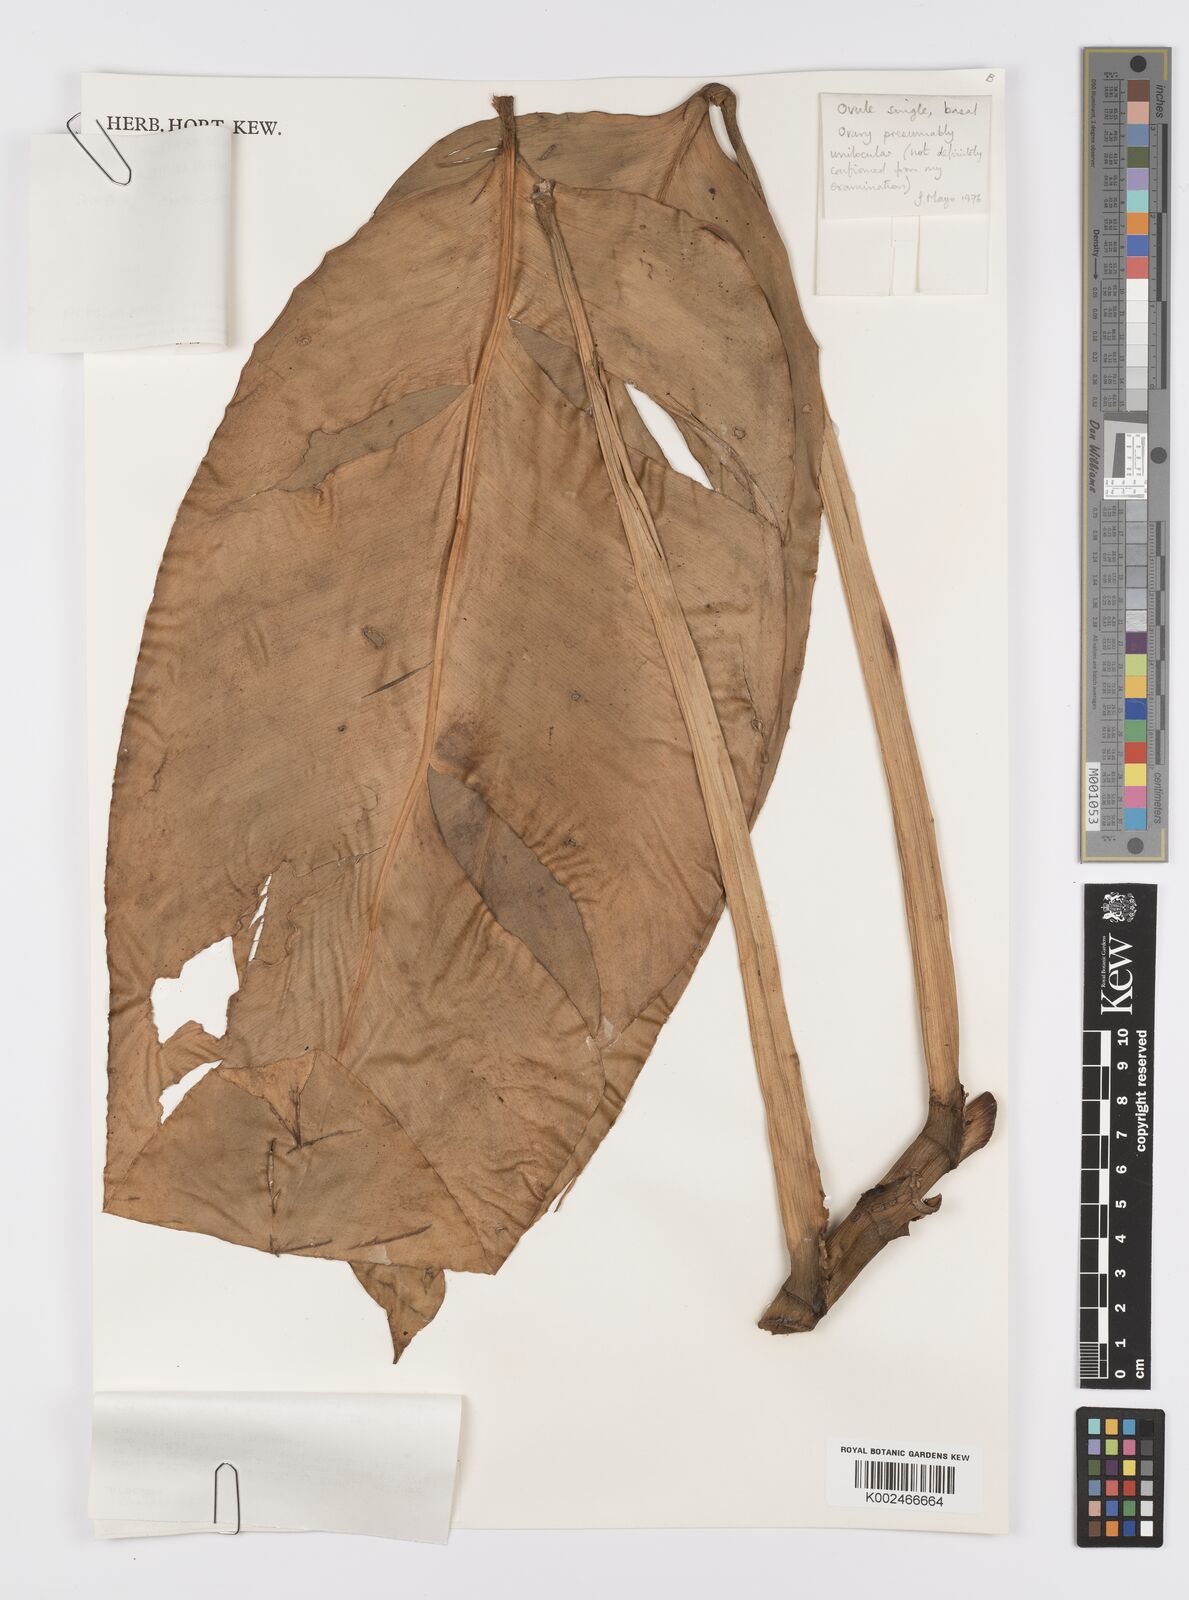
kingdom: Plantae
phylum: Tracheophyta
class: Liliopsida
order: Alismatales
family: Araceae
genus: Scindapsus
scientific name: Scindapsus altissimus
